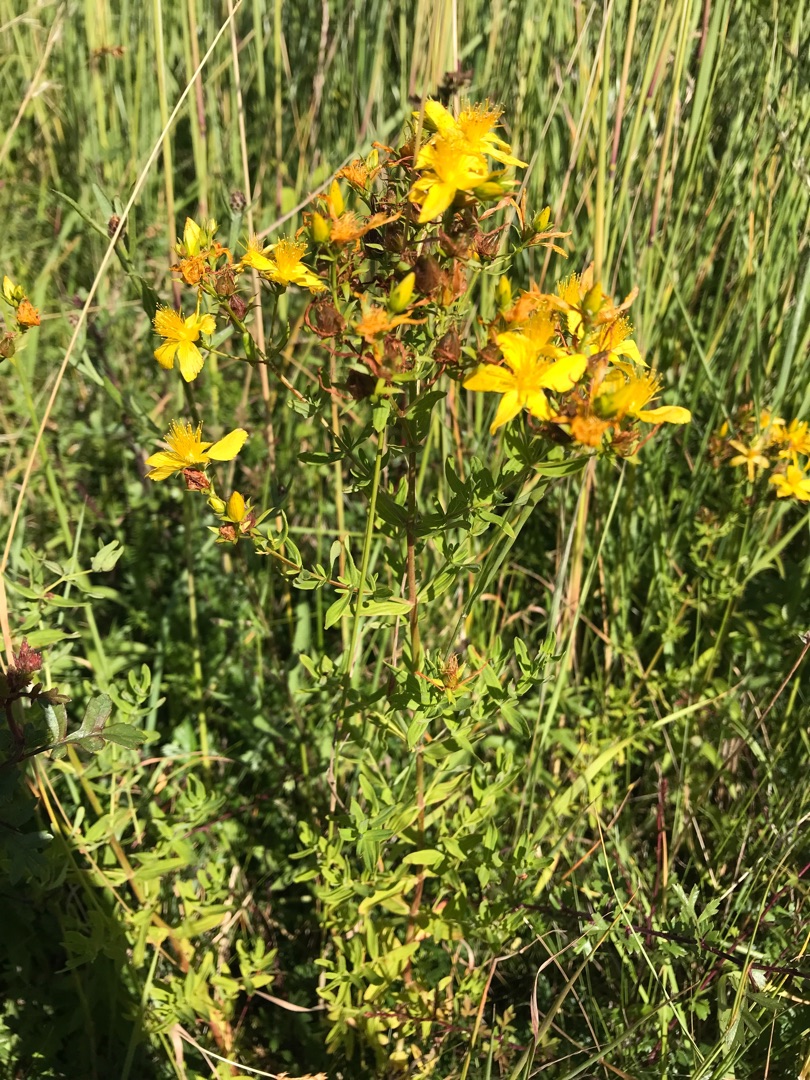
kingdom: Plantae
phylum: Tracheophyta
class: Magnoliopsida
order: Malpighiales
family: Hypericaceae
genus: Hypericum
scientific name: Hypericum perforatum
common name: Prikbladet perikon
